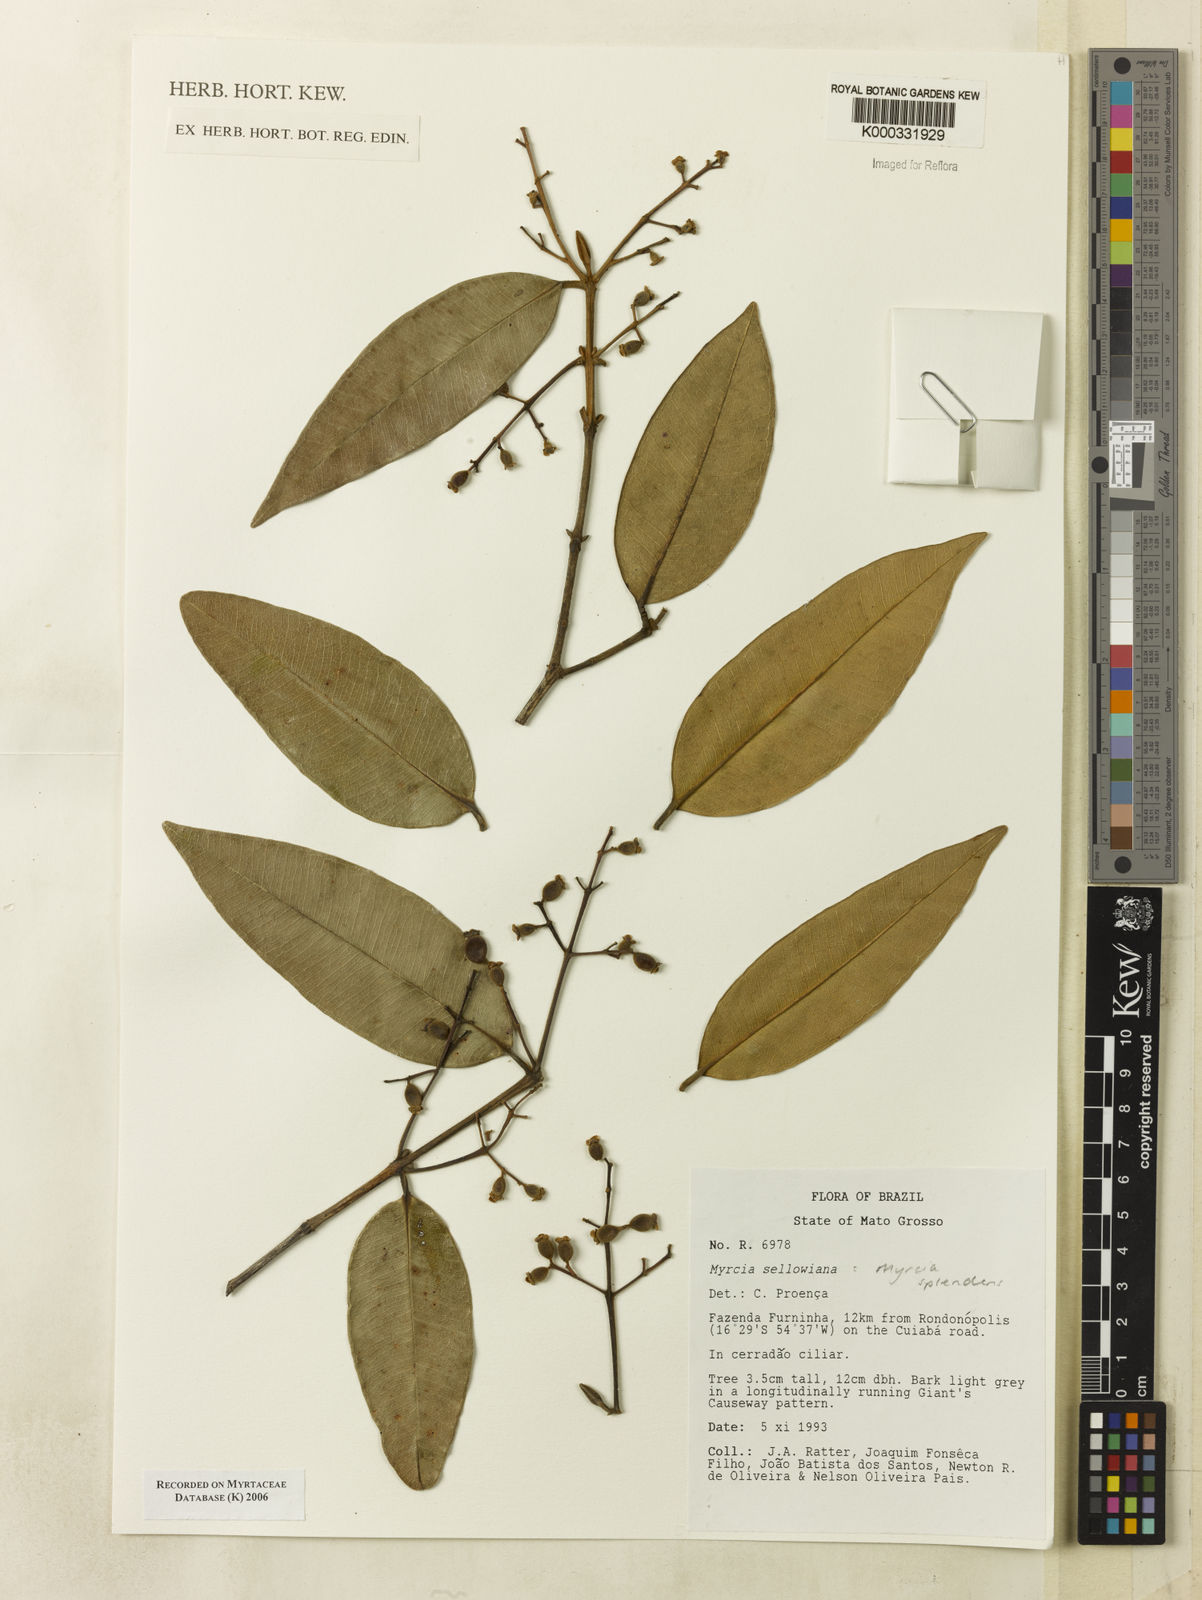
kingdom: Plantae
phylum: Tracheophyta
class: Magnoliopsida
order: Myrtales
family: Myrtaceae
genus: Myrcia
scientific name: Myrcia splendens
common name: Surinam cherry
